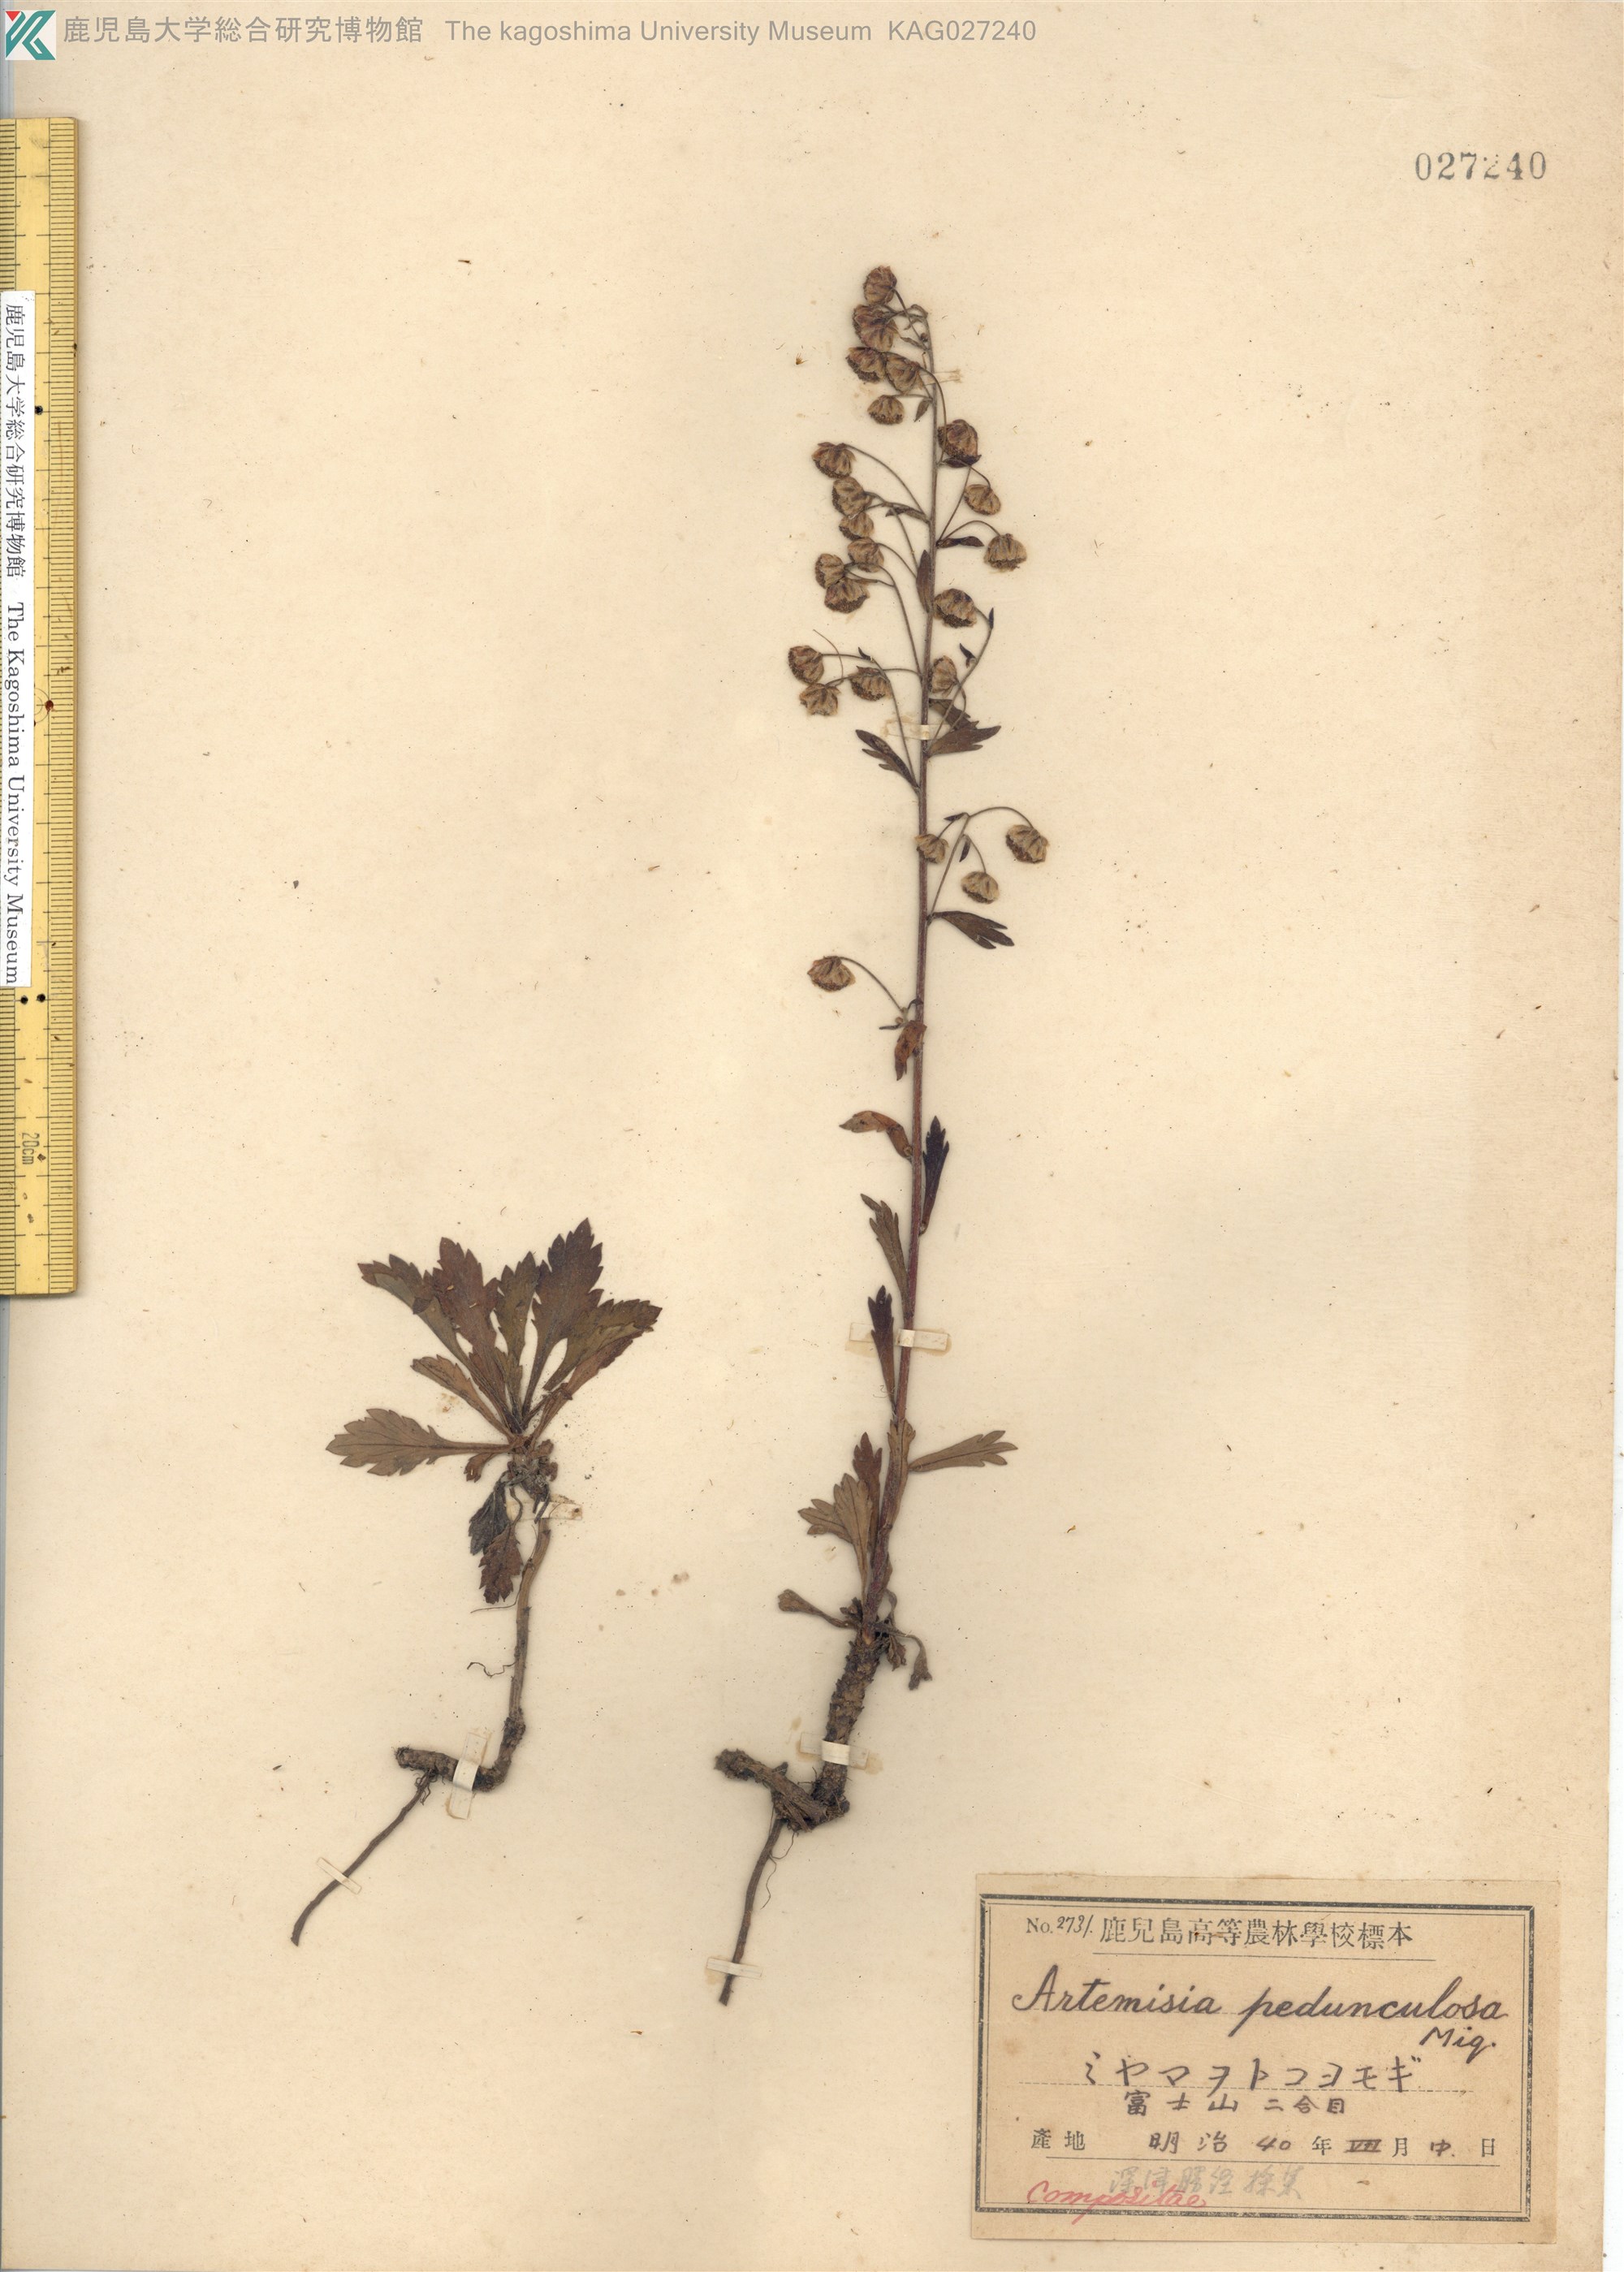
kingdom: Plantae
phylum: Tracheophyta
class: Magnoliopsida
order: Asterales
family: Asteraceae
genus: Artemisia
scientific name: Artemisia pedunculosa
